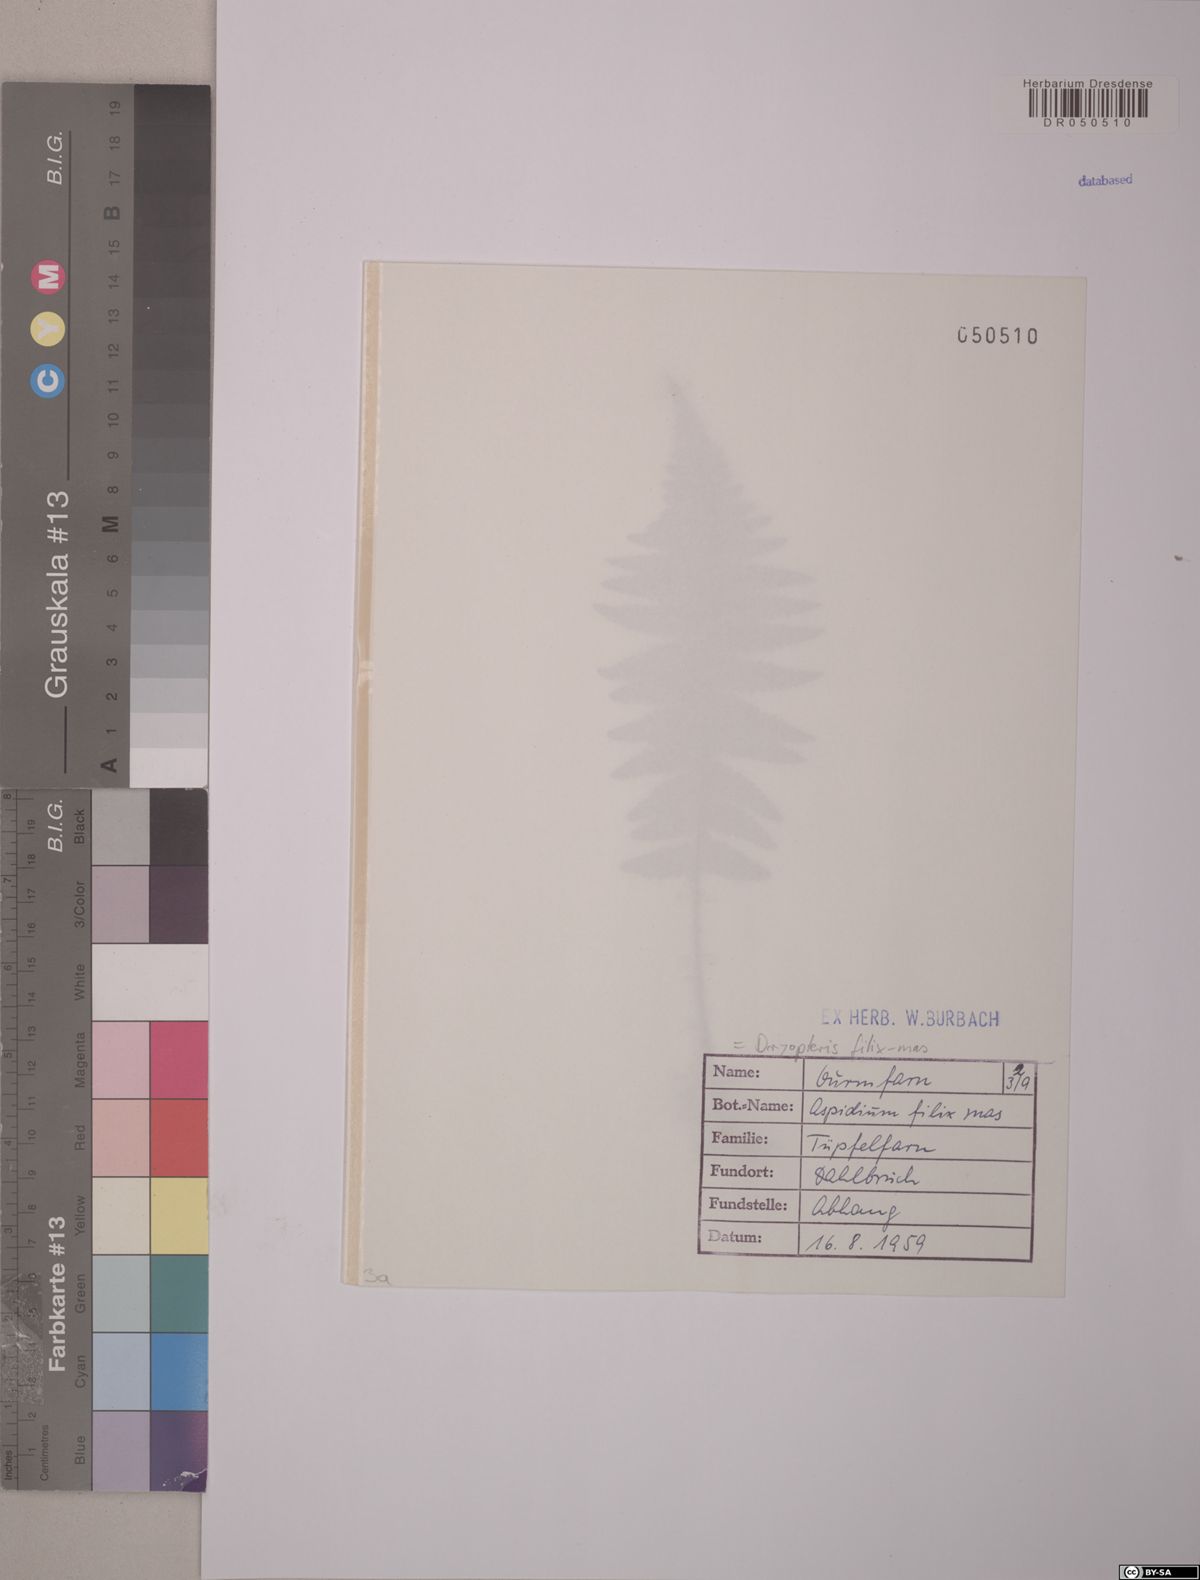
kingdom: Plantae
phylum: Tracheophyta
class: Polypodiopsida
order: Polypodiales
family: Dryopteridaceae
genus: Dryopteris
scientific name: Dryopteris filix-mas
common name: Male fern
